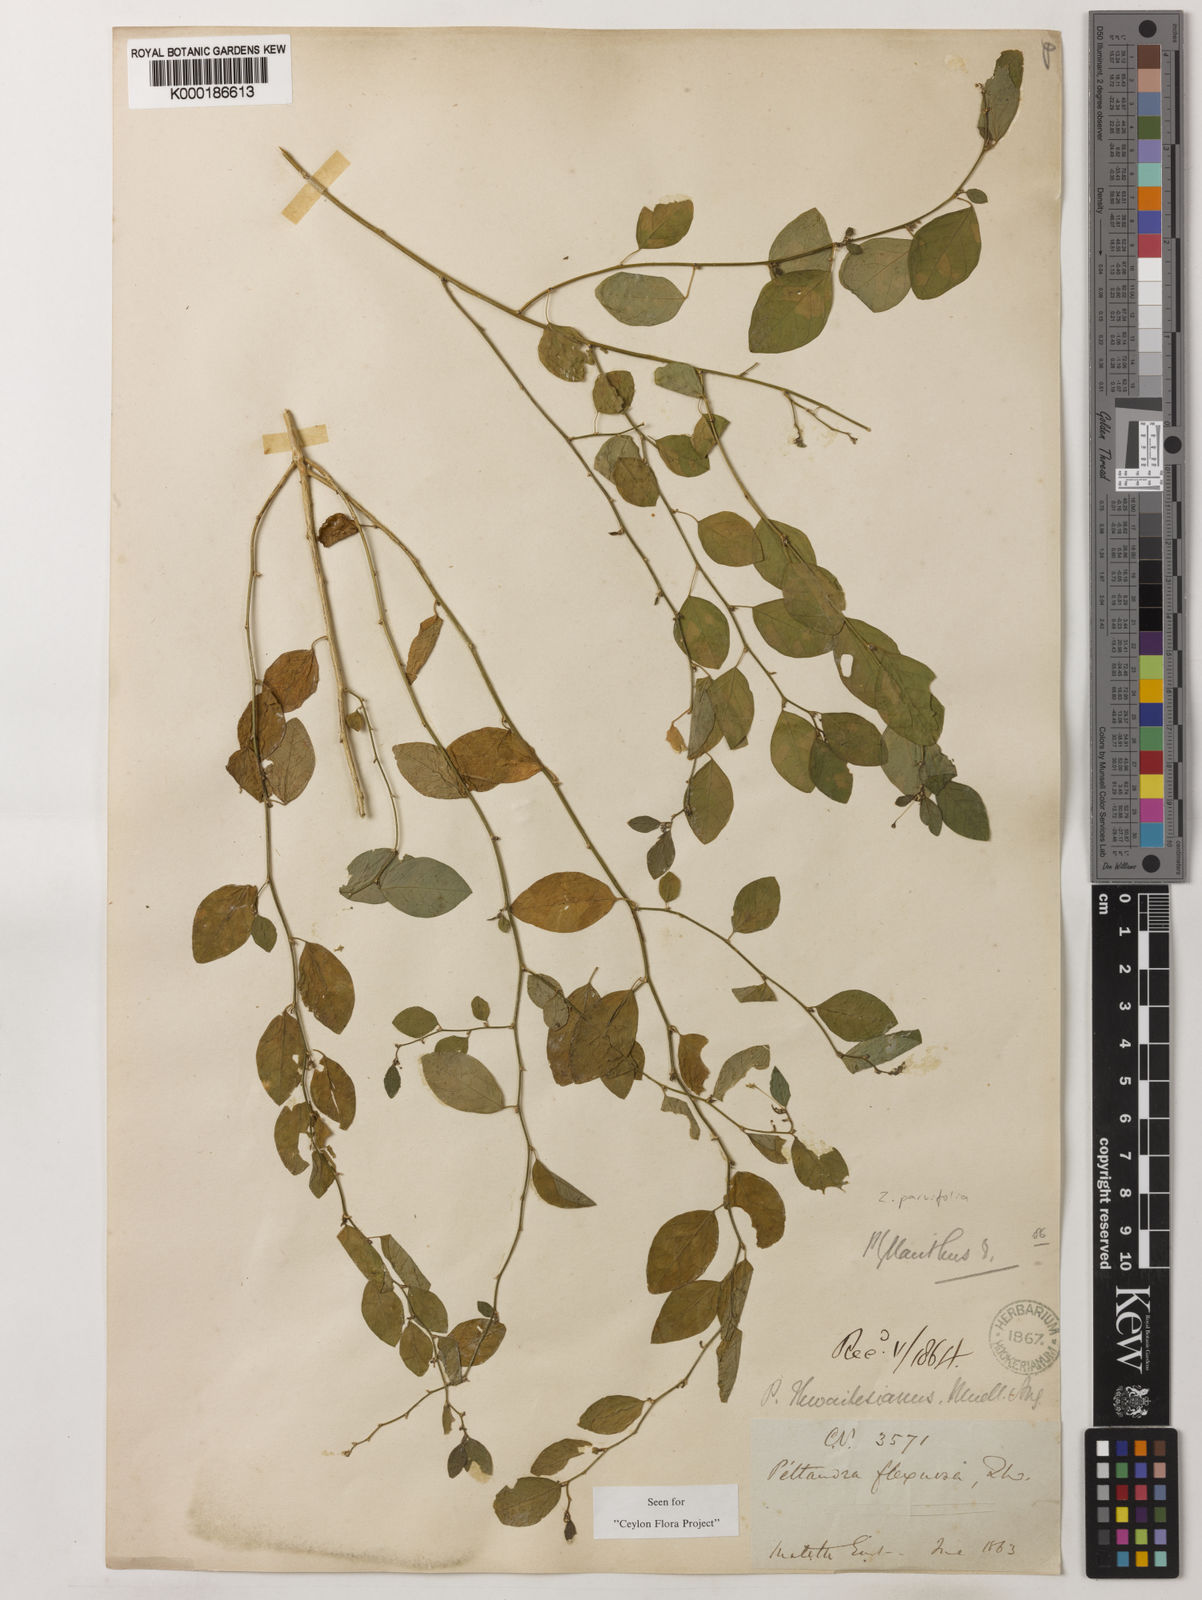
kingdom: Plantae
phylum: Tracheophyta
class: Magnoliopsida
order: Malpighiales
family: Phyllanthaceae
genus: Meineckia
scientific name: Meineckia parvifolia
